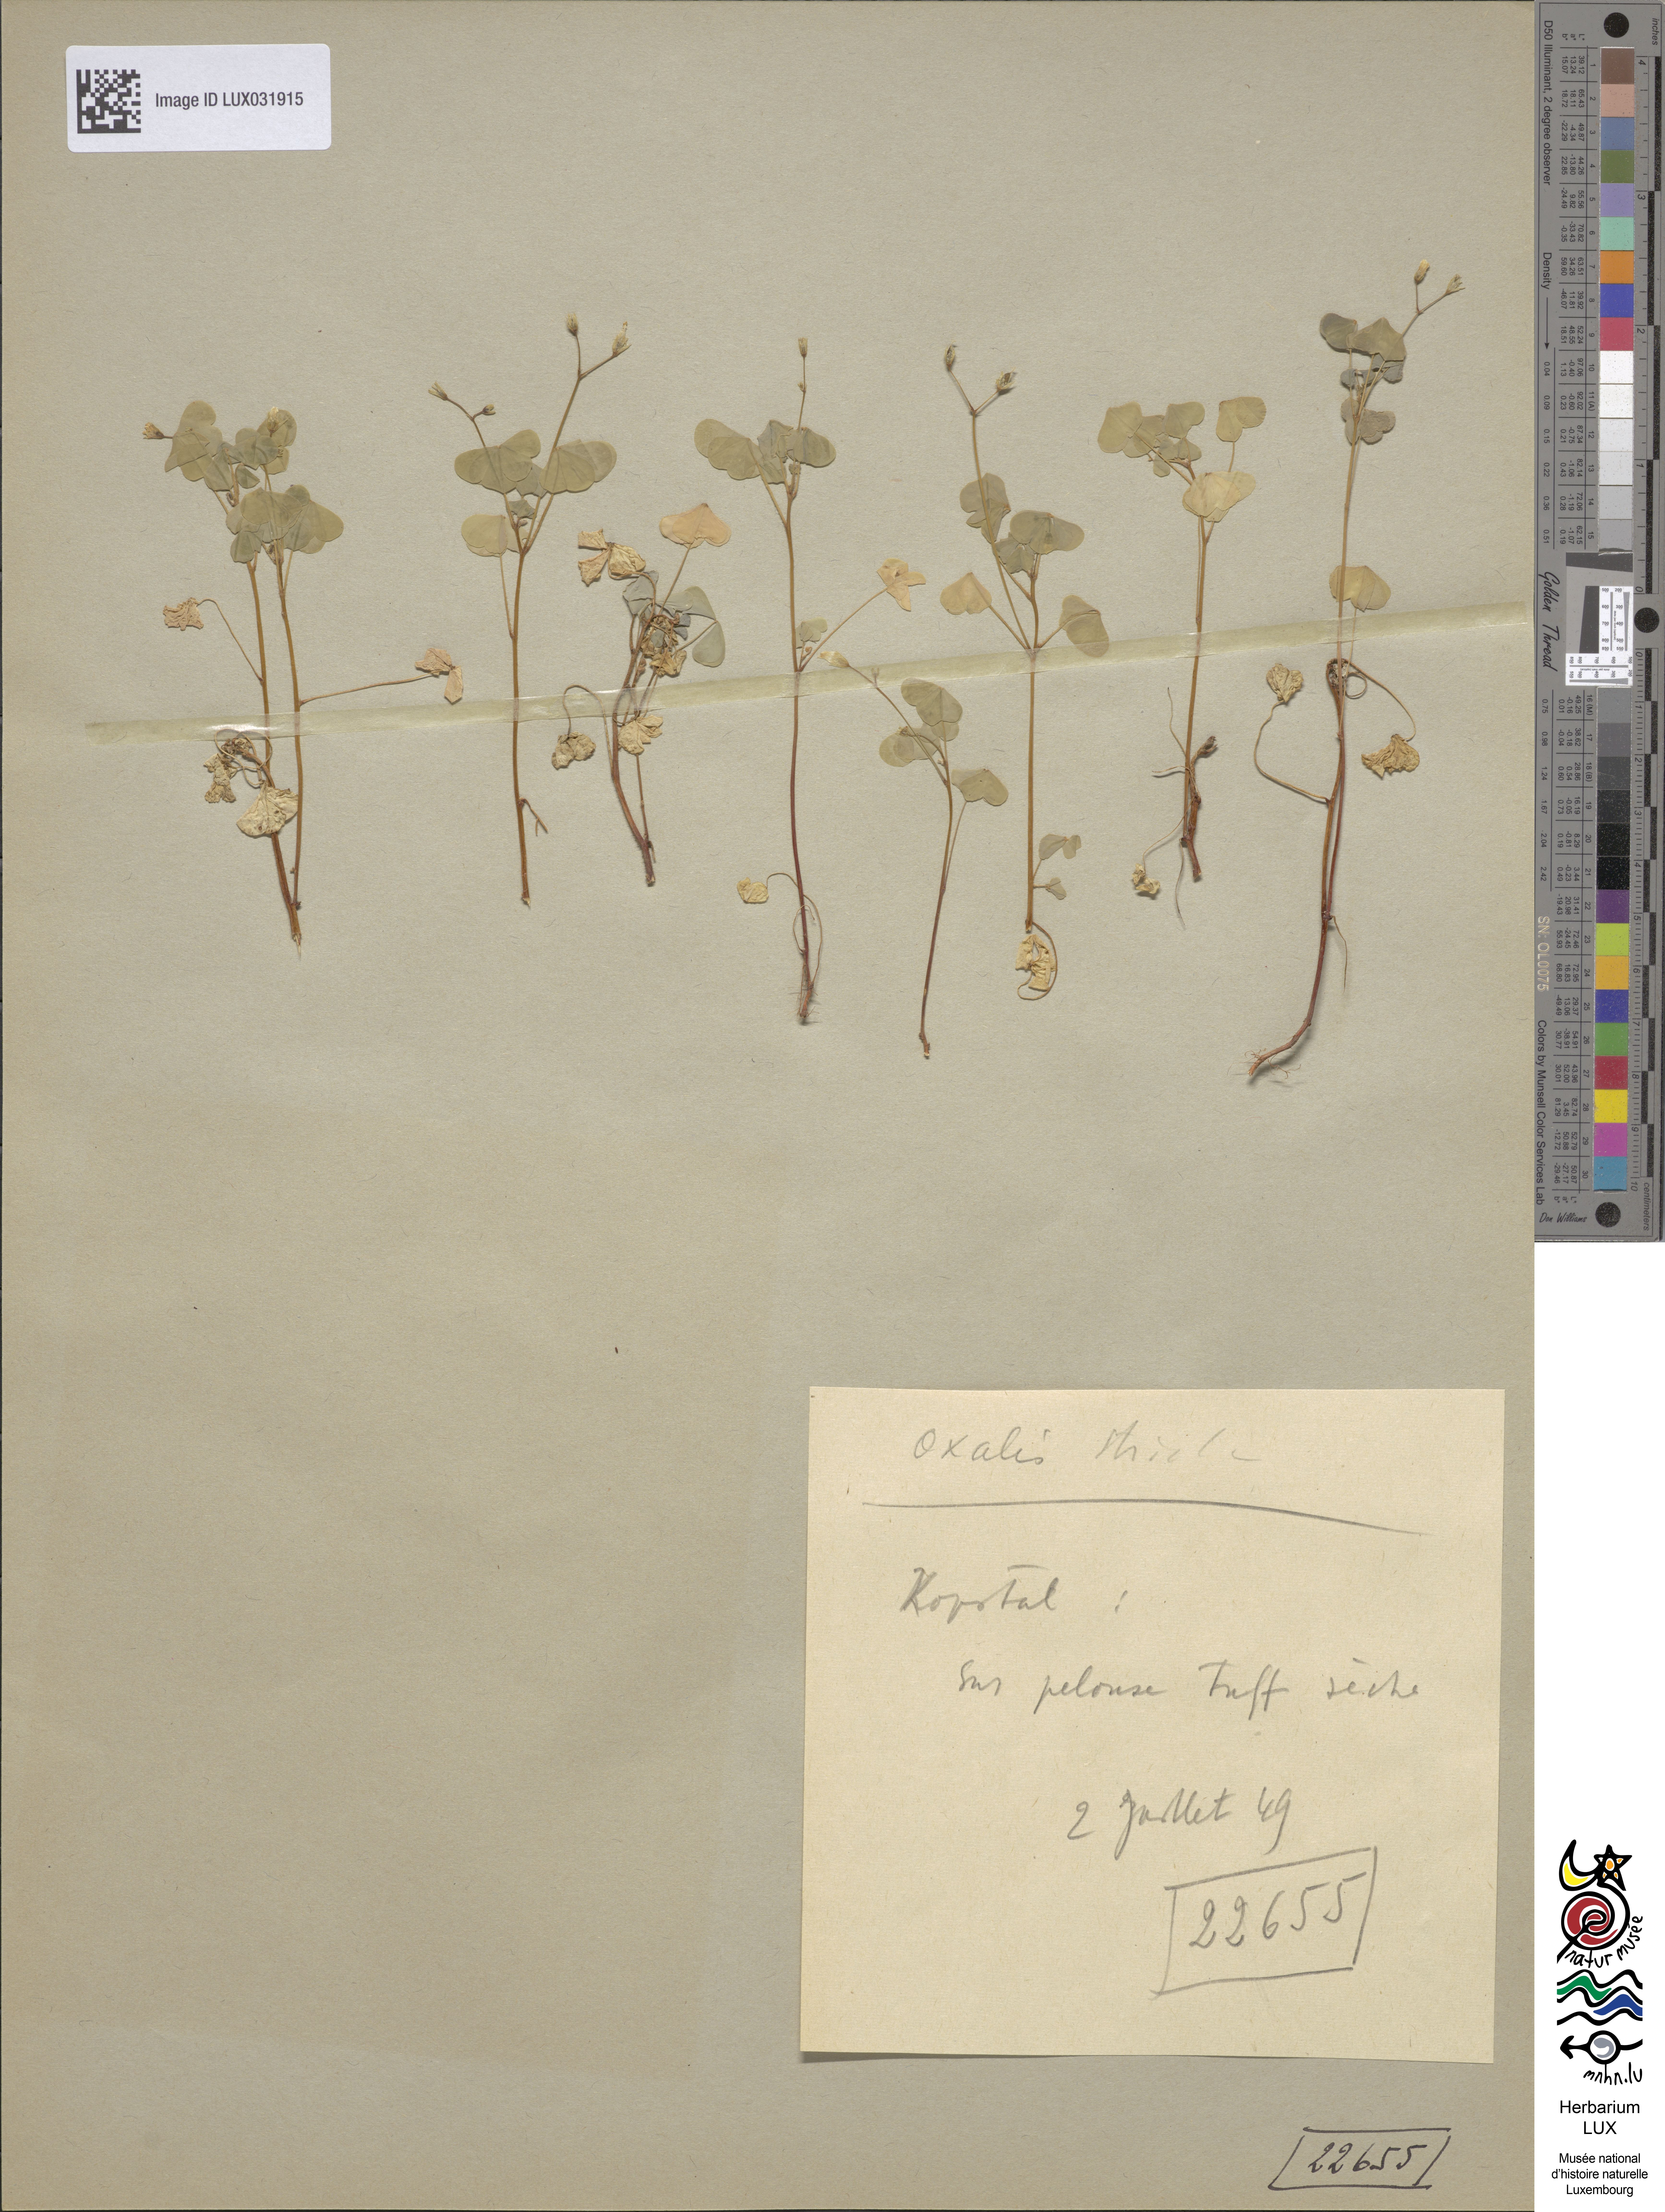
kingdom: Plantae
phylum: Tracheophyta
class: Magnoliopsida
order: Oxalidales
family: Oxalidaceae
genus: Oxalis
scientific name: Oxalis stricta
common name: Upright yellow-sorrel
